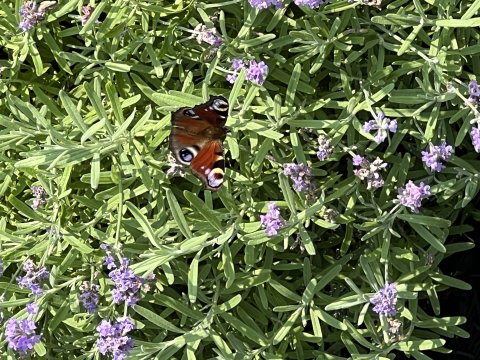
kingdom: Animalia
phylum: Arthropoda
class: Insecta
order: Lepidoptera
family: Nymphalidae
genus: Aglais
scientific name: Aglais io
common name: European Peacock
